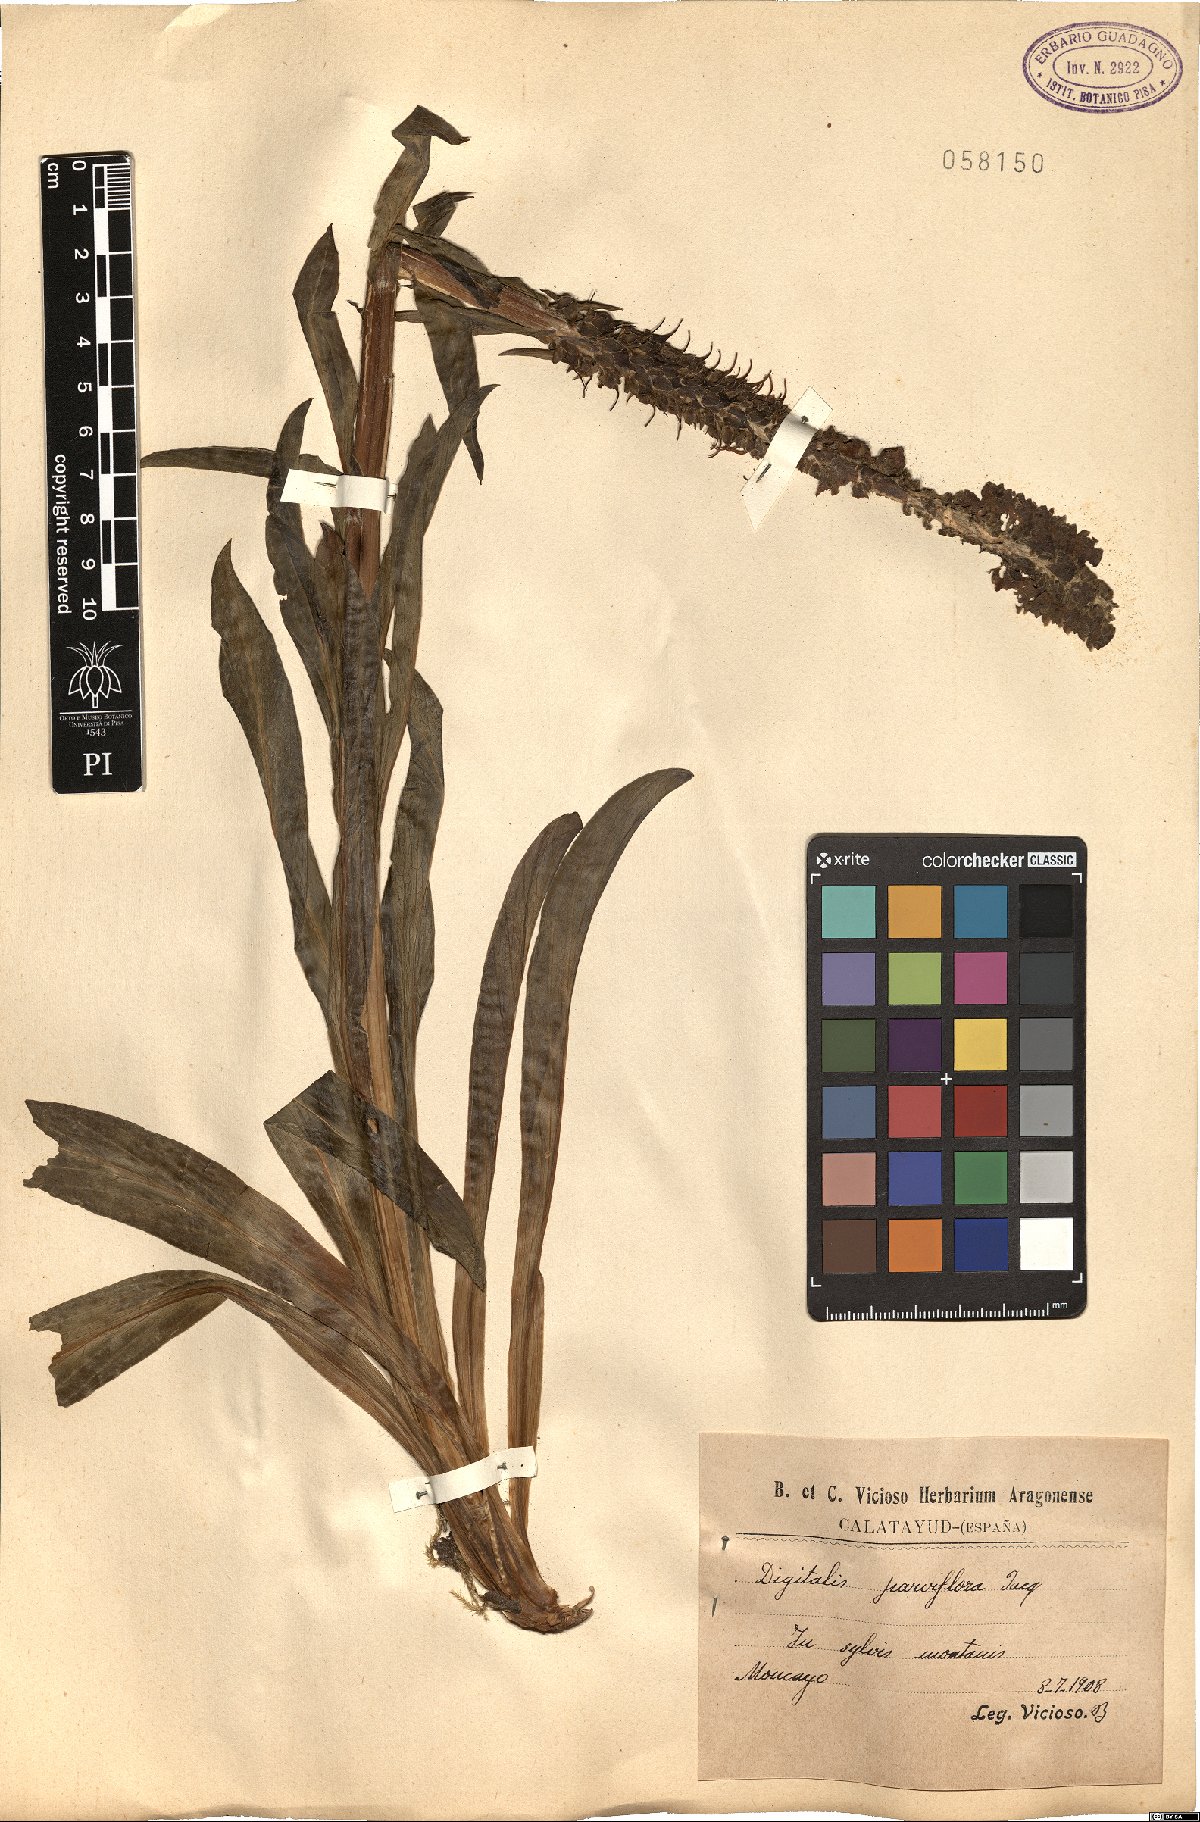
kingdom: Plantae
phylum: Tracheophyta
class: Magnoliopsida
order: Lamiales
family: Plantaginaceae
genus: Digitalis
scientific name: Digitalis parviflora
